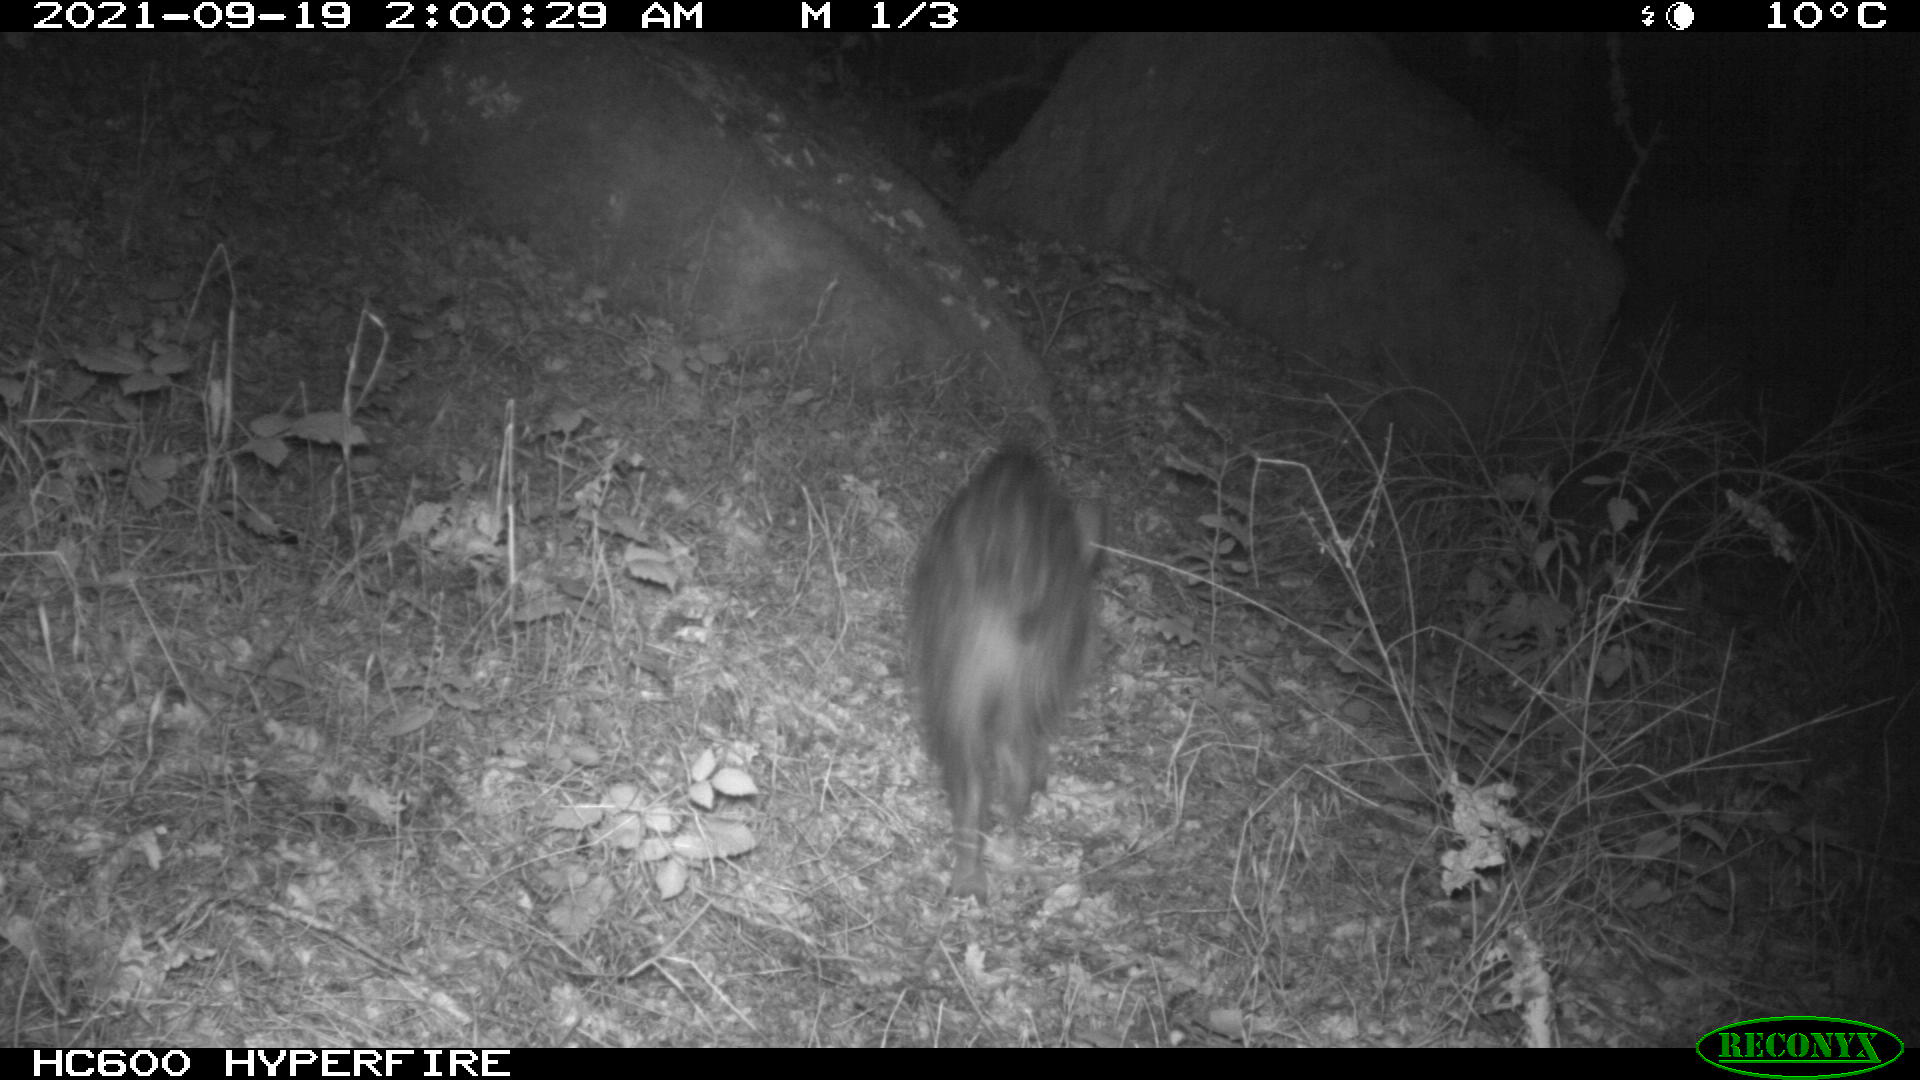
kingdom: Animalia
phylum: Chordata
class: Mammalia
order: Artiodactyla
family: Suidae
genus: Sus
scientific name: Sus scrofa
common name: Wild boar
